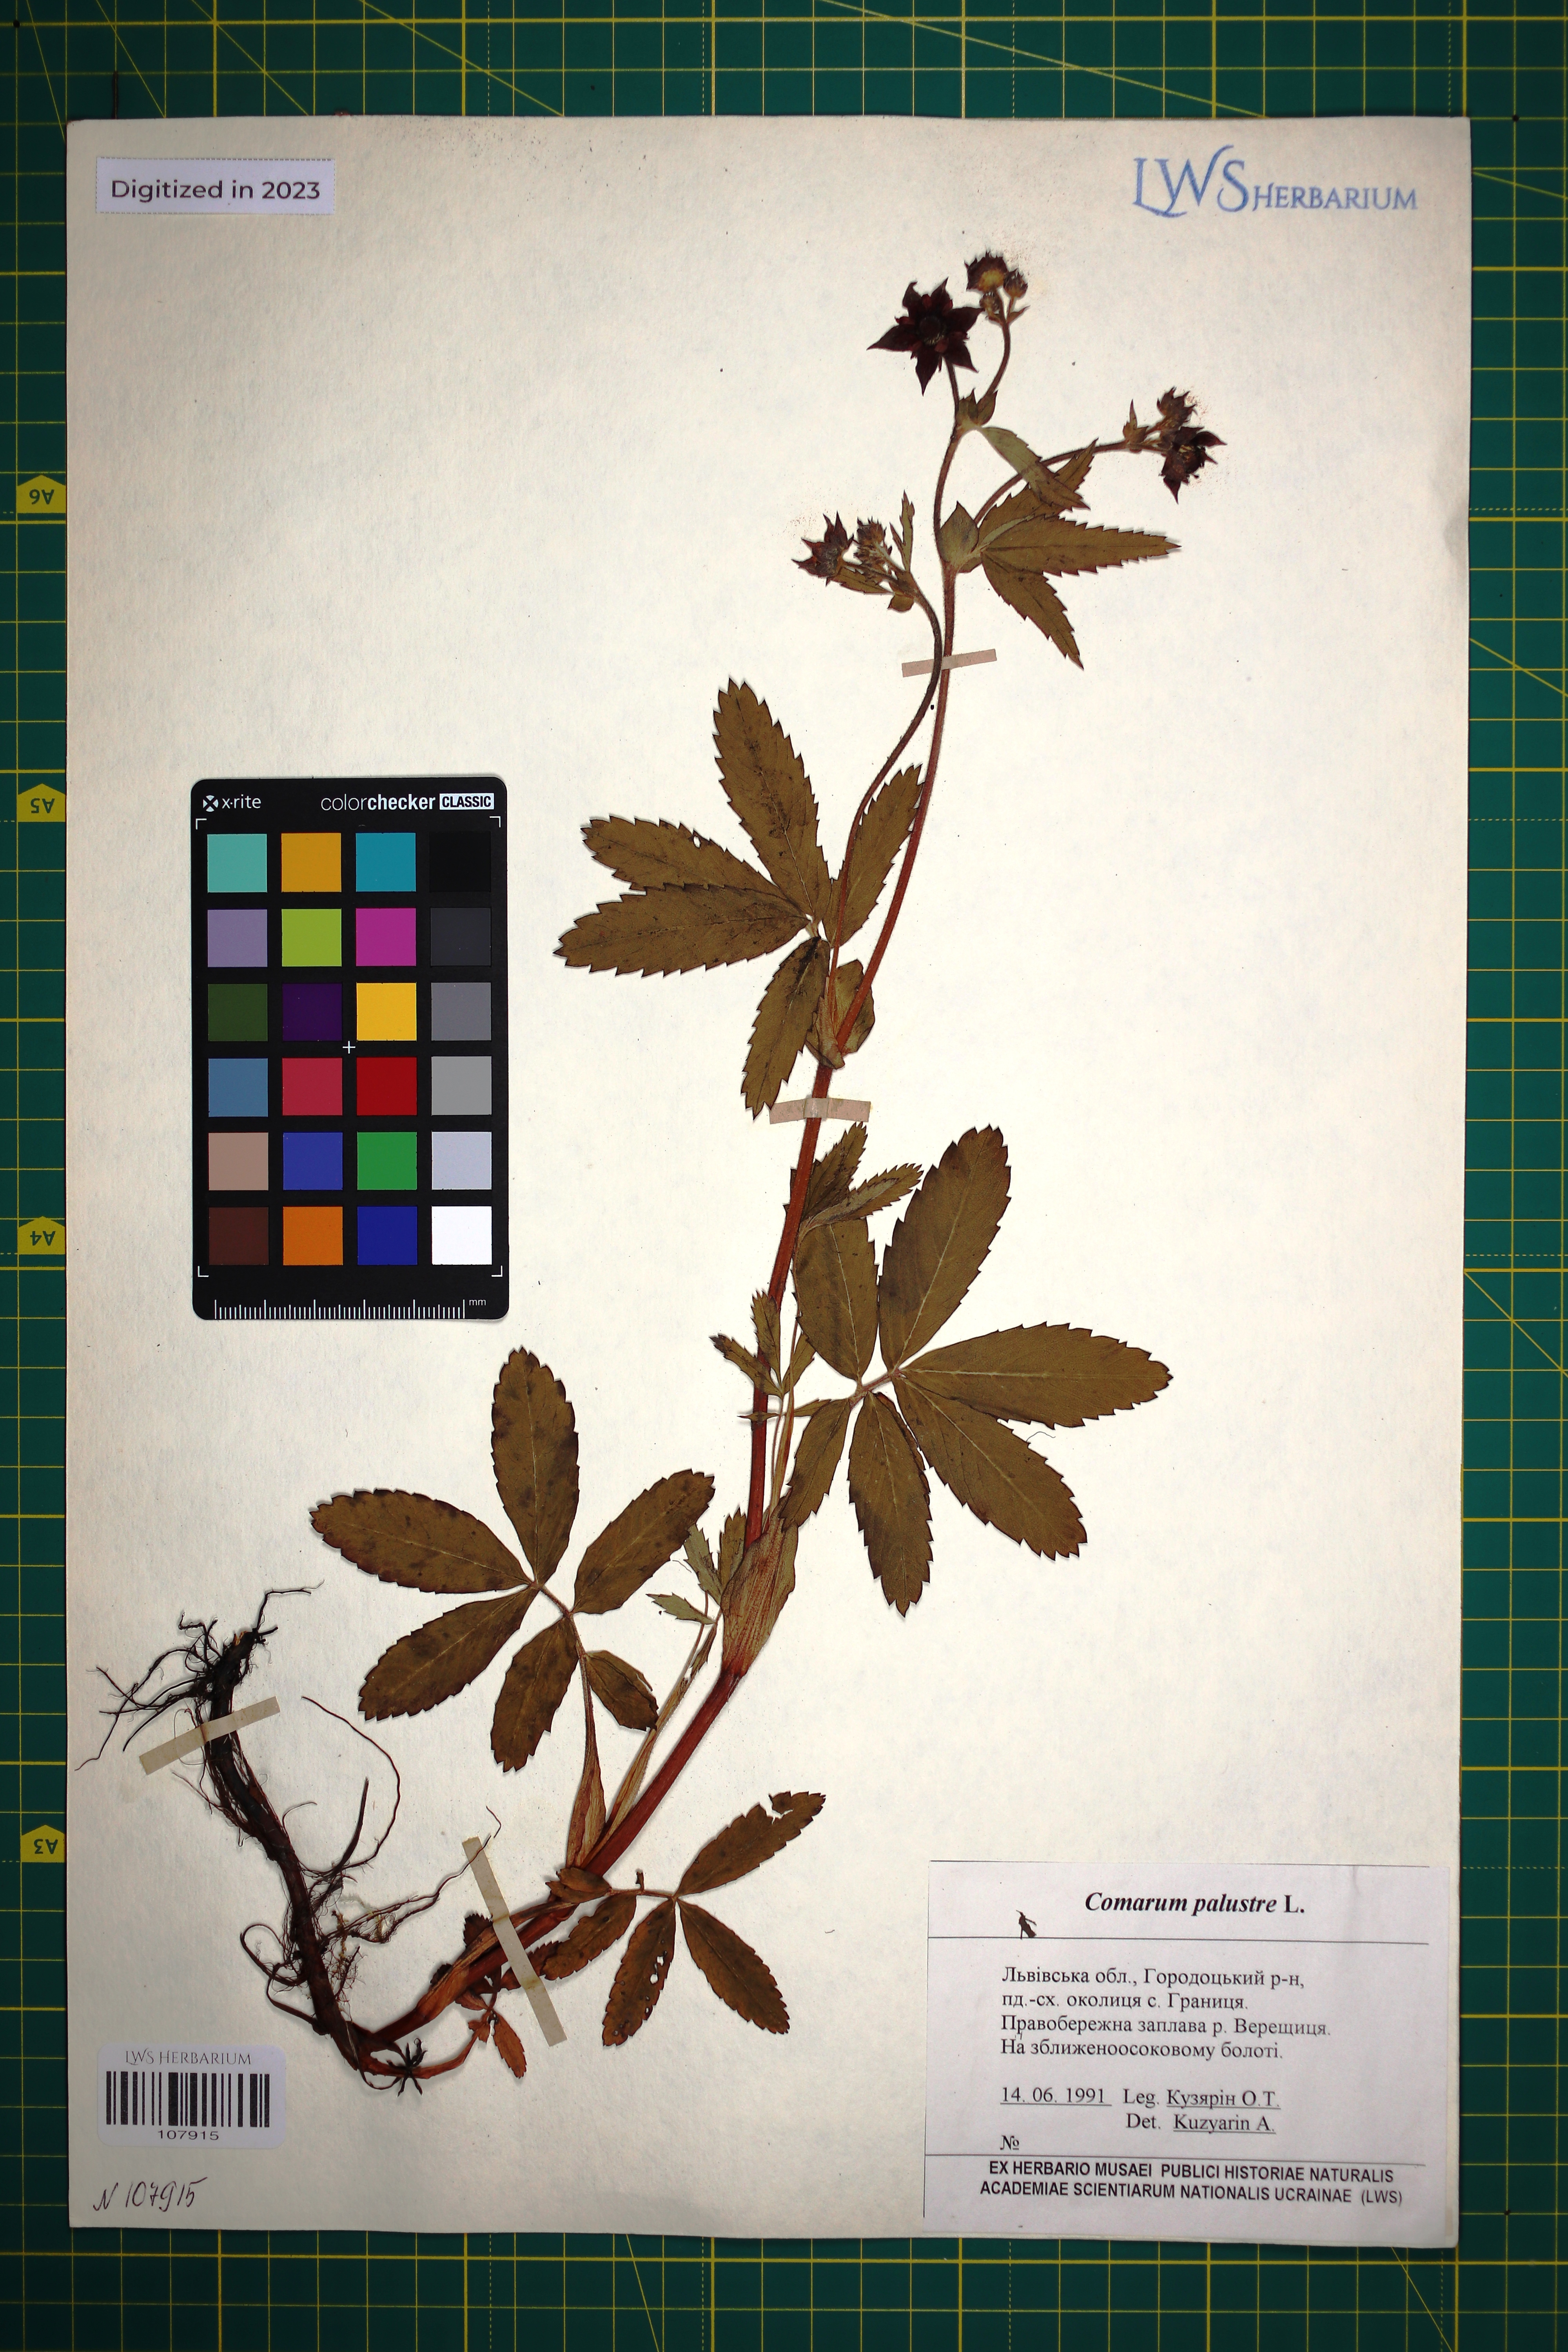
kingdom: Plantae
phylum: Tracheophyta
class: Magnoliopsida
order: Rosales
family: Rosaceae
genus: Comarum
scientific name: Comarum palustre
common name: Marsh cinquefoil
